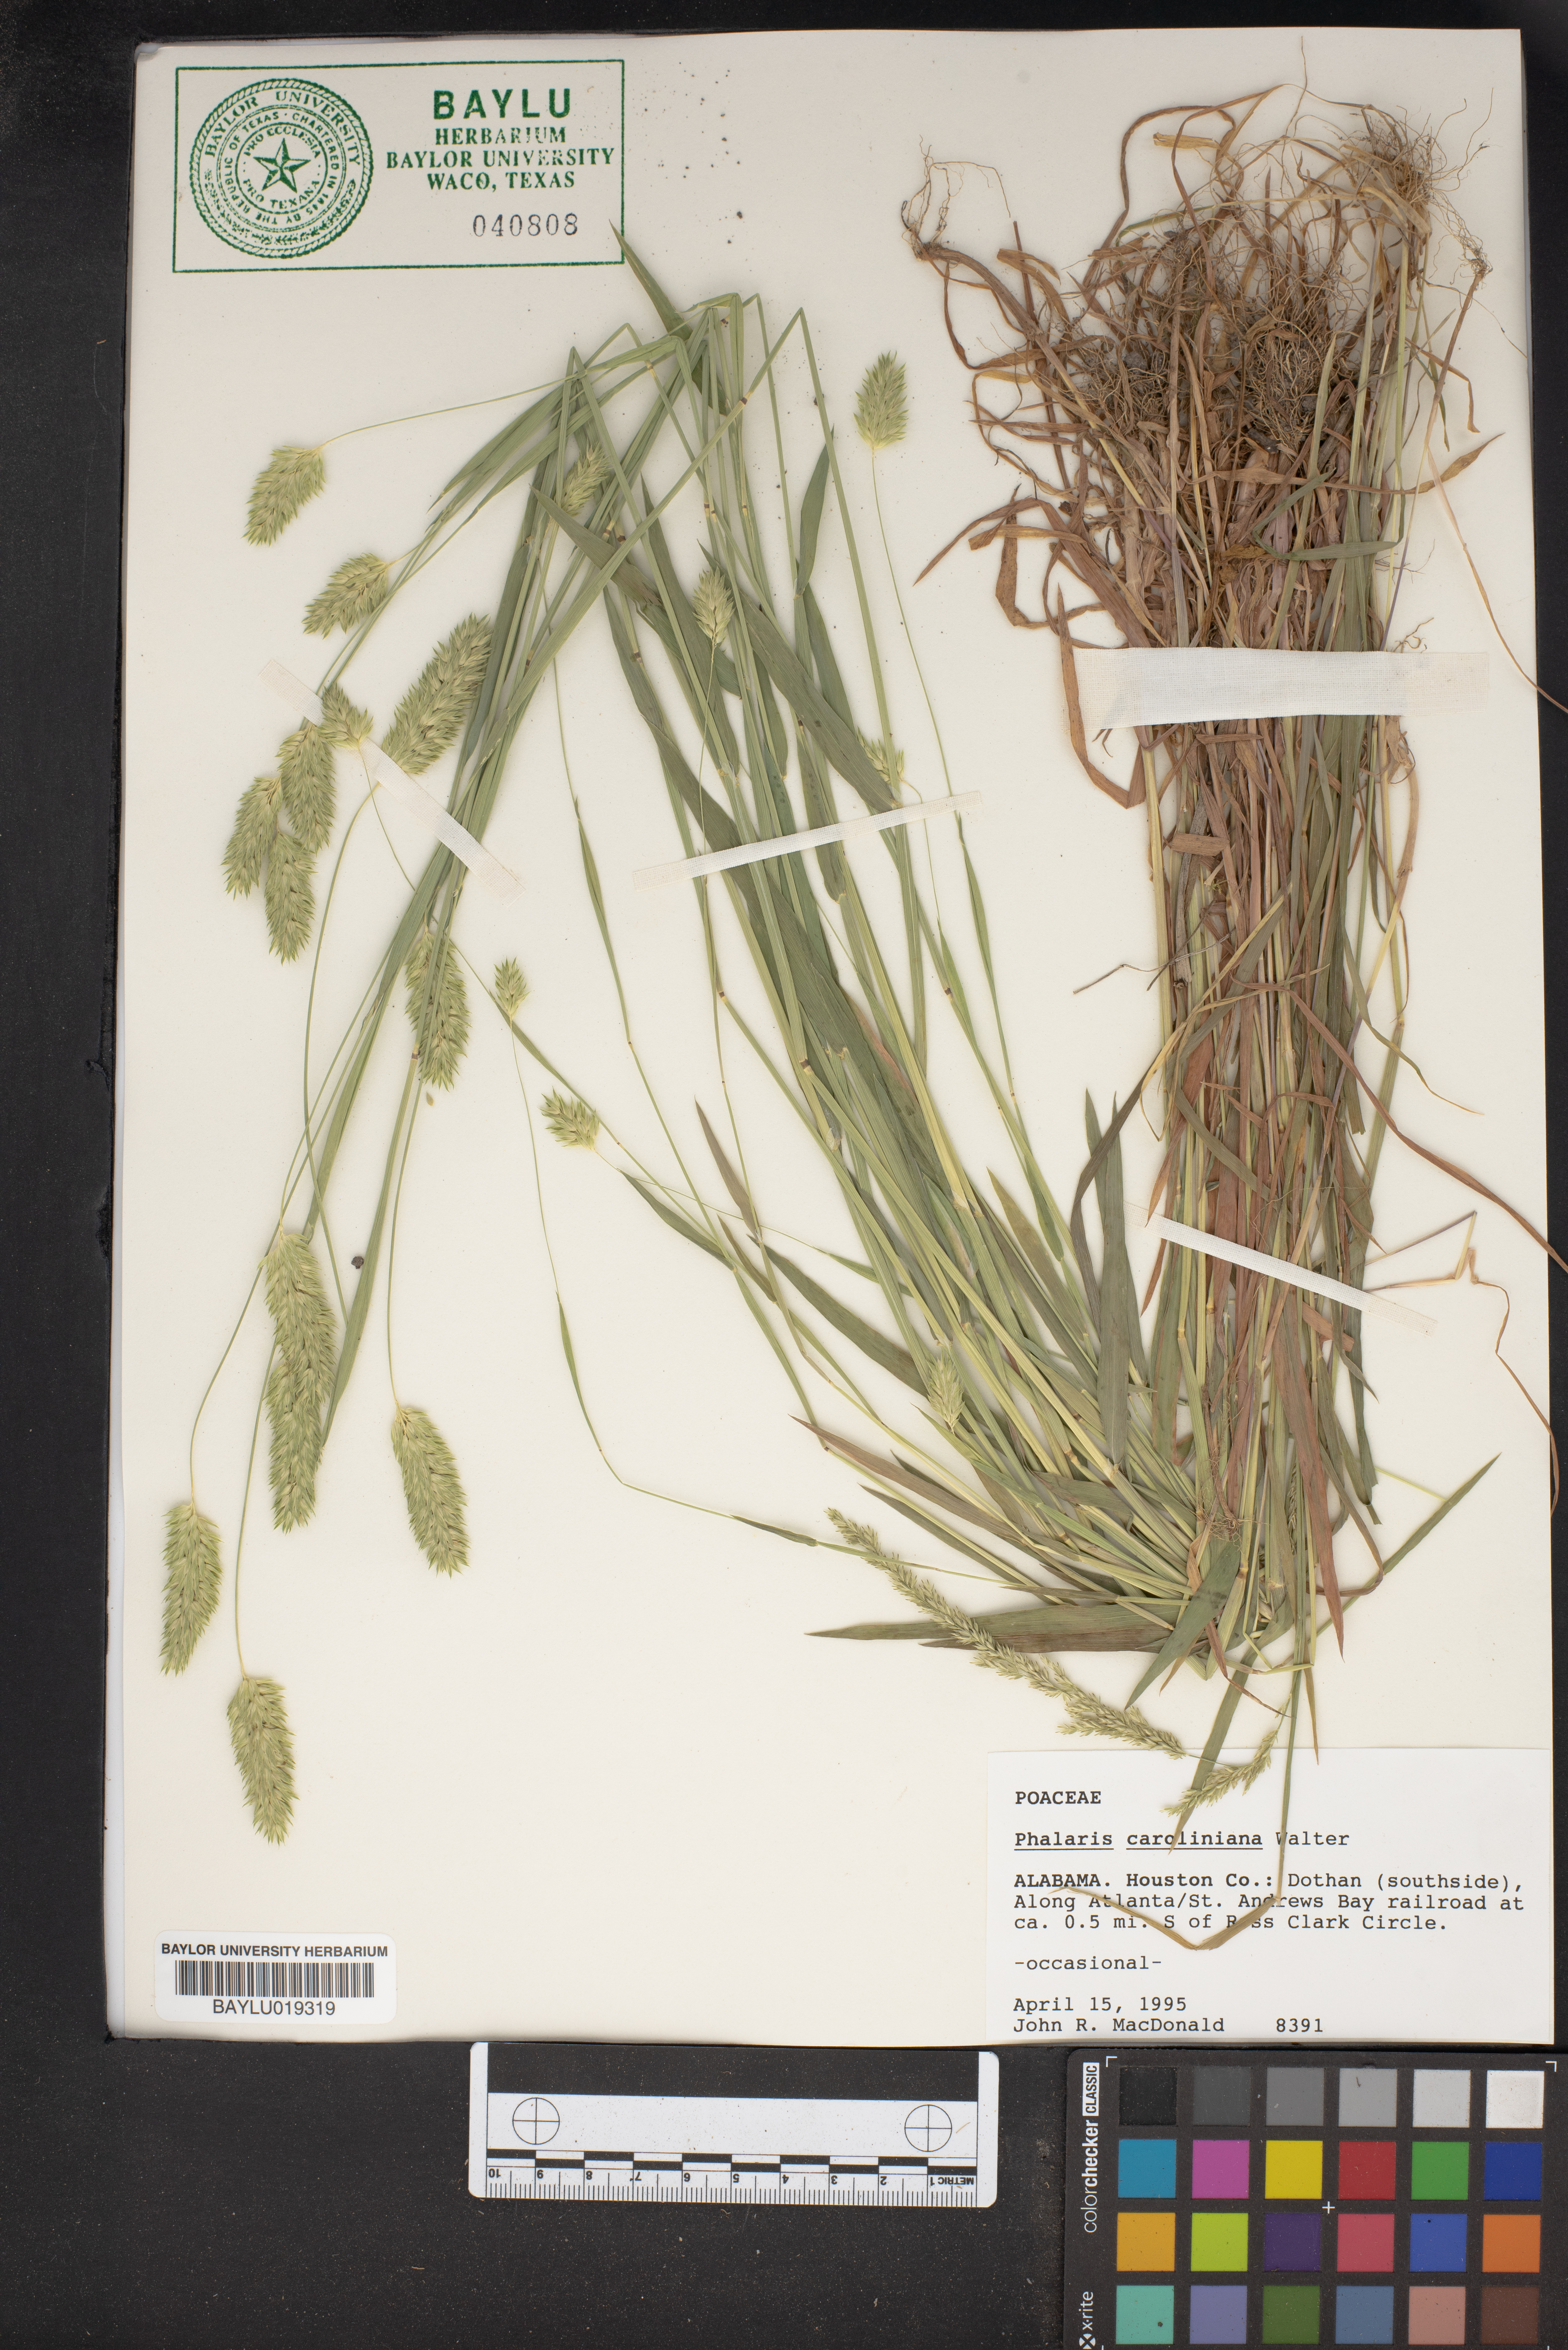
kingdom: Plantae
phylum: Tracheophyta
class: Liliopsida
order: Poales
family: Poaceae
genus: Phalaris
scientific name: Phalaris caroliniana
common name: May grass
